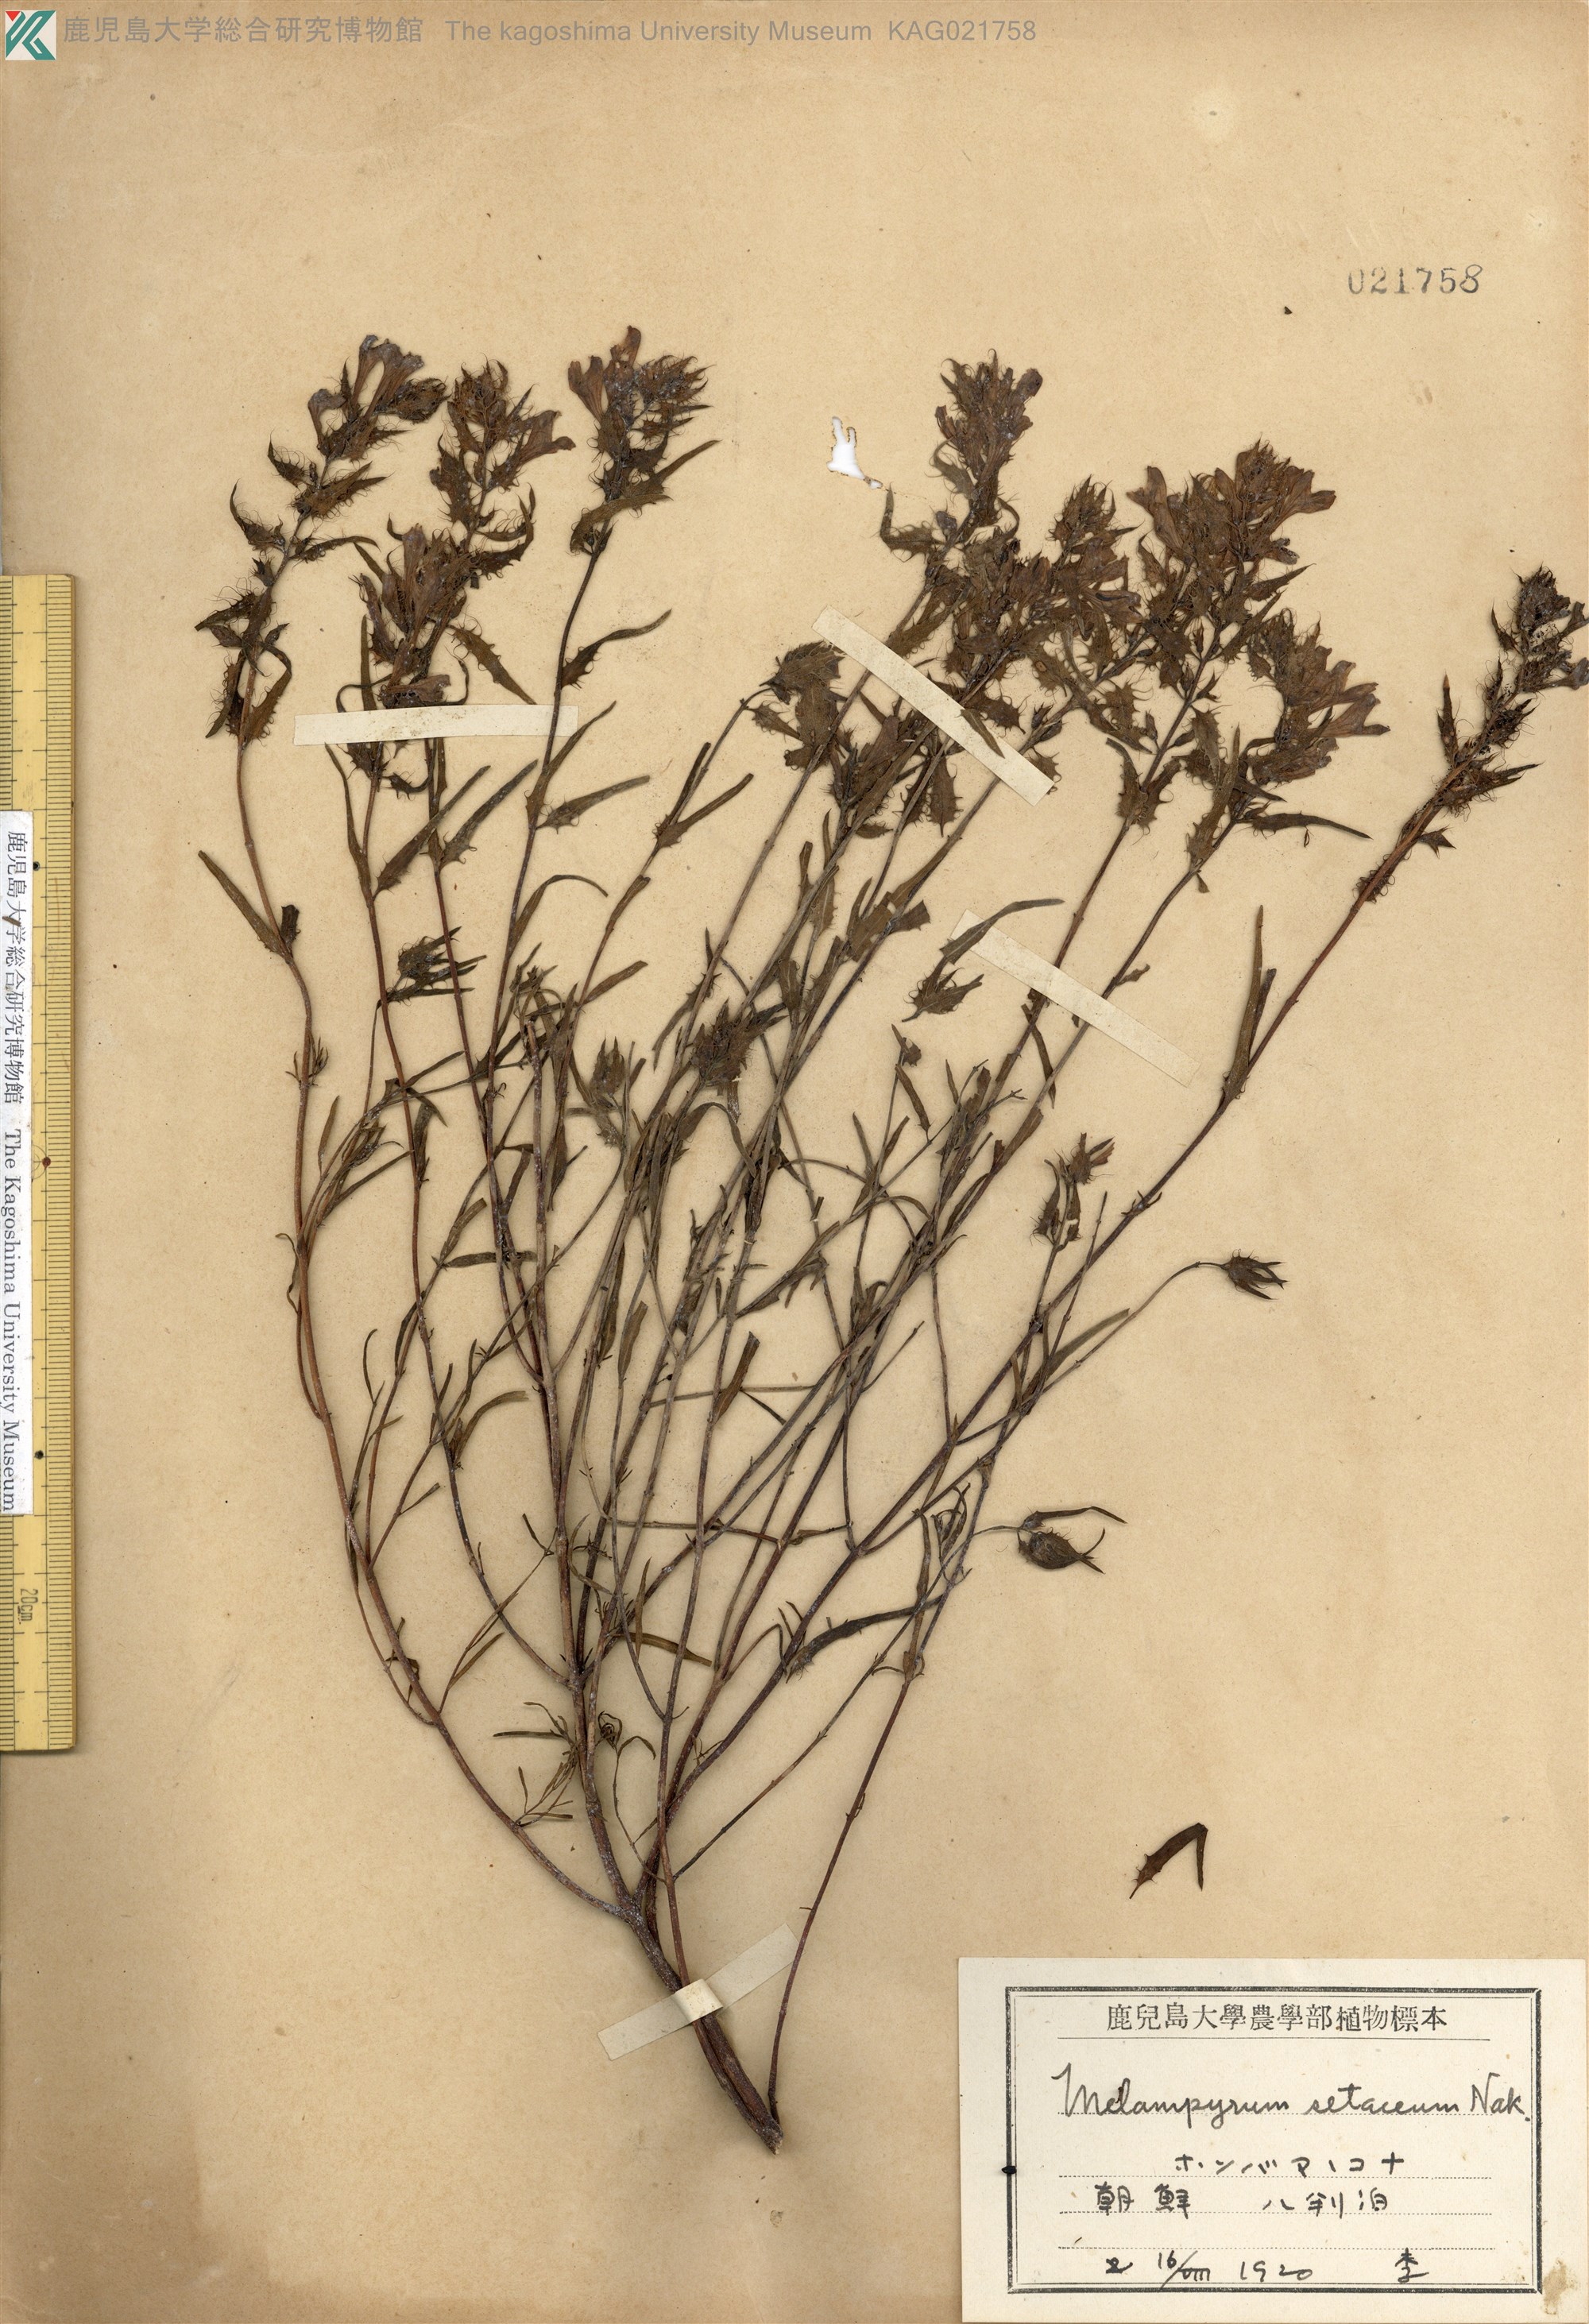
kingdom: Plantae
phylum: Tracheophyta
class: Magnoliopsida
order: Lamiales
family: Orobanchaceae
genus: Melampyrum
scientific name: Melampyrum setaceum
